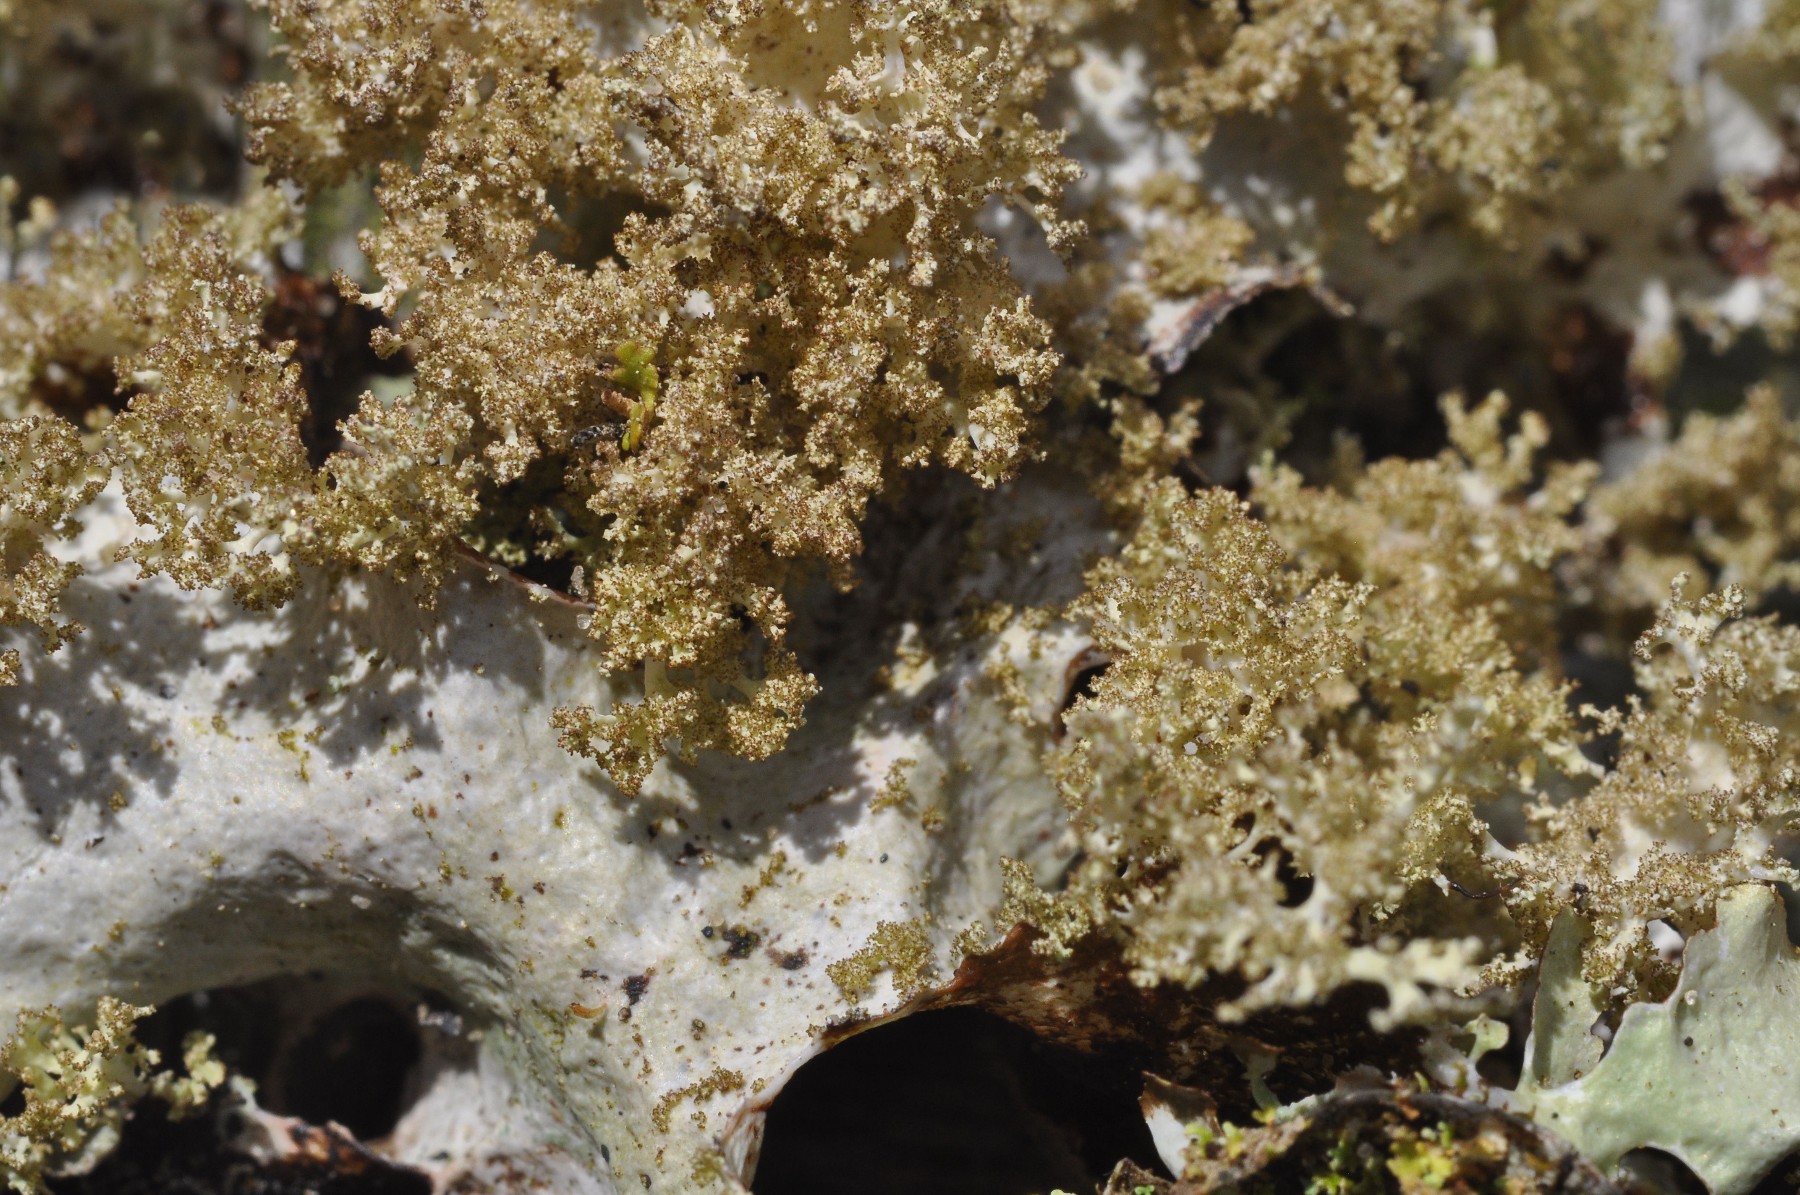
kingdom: Fungi
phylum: Ascomycota
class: Lecanoromycetes
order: Lecanorales
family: Parmeliaceae
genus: Platismatia
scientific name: Platismatia glauca
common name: blågrå papirlav
